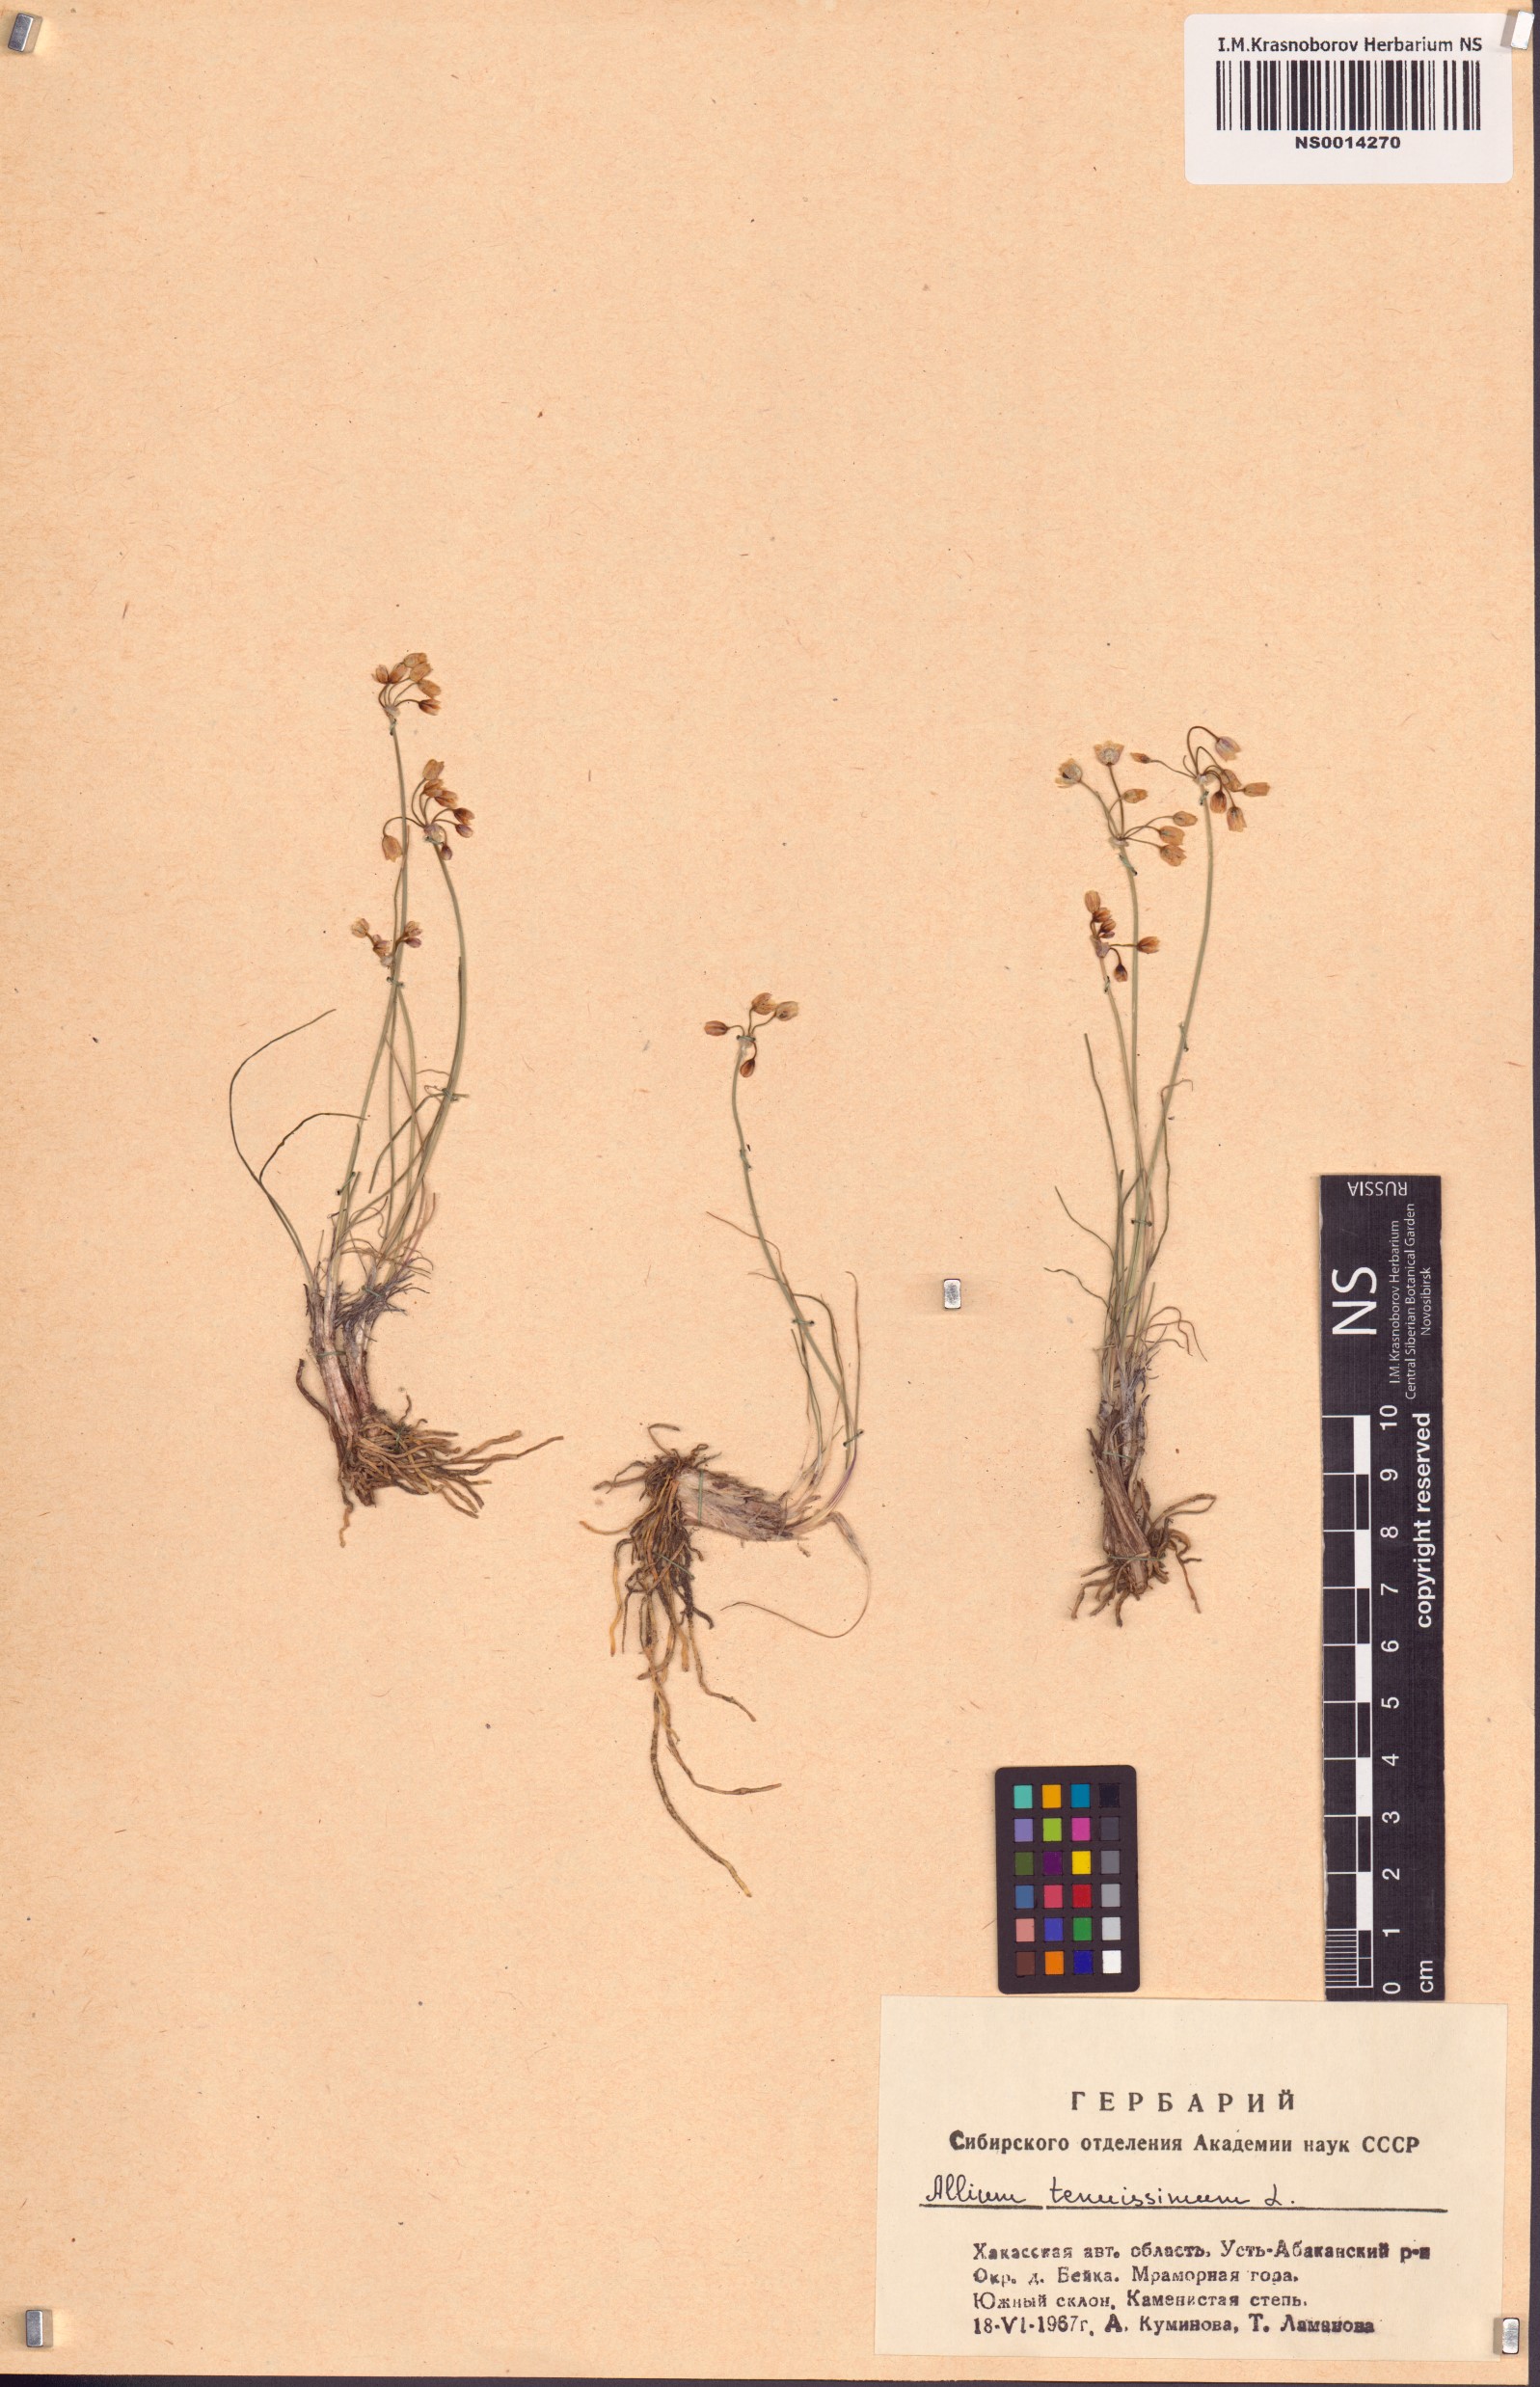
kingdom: Plantae
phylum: Tracheophyta
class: Liliopsida
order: Asparagales
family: Amaryllidaceae
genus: Allium
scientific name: Allium tenuissimum
